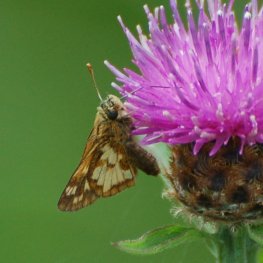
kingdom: Animalia
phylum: Arthropoda
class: Insecta
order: Lepidoptera
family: Hesperiidae
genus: Polites
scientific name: Polites coras
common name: Peck's Skipper
